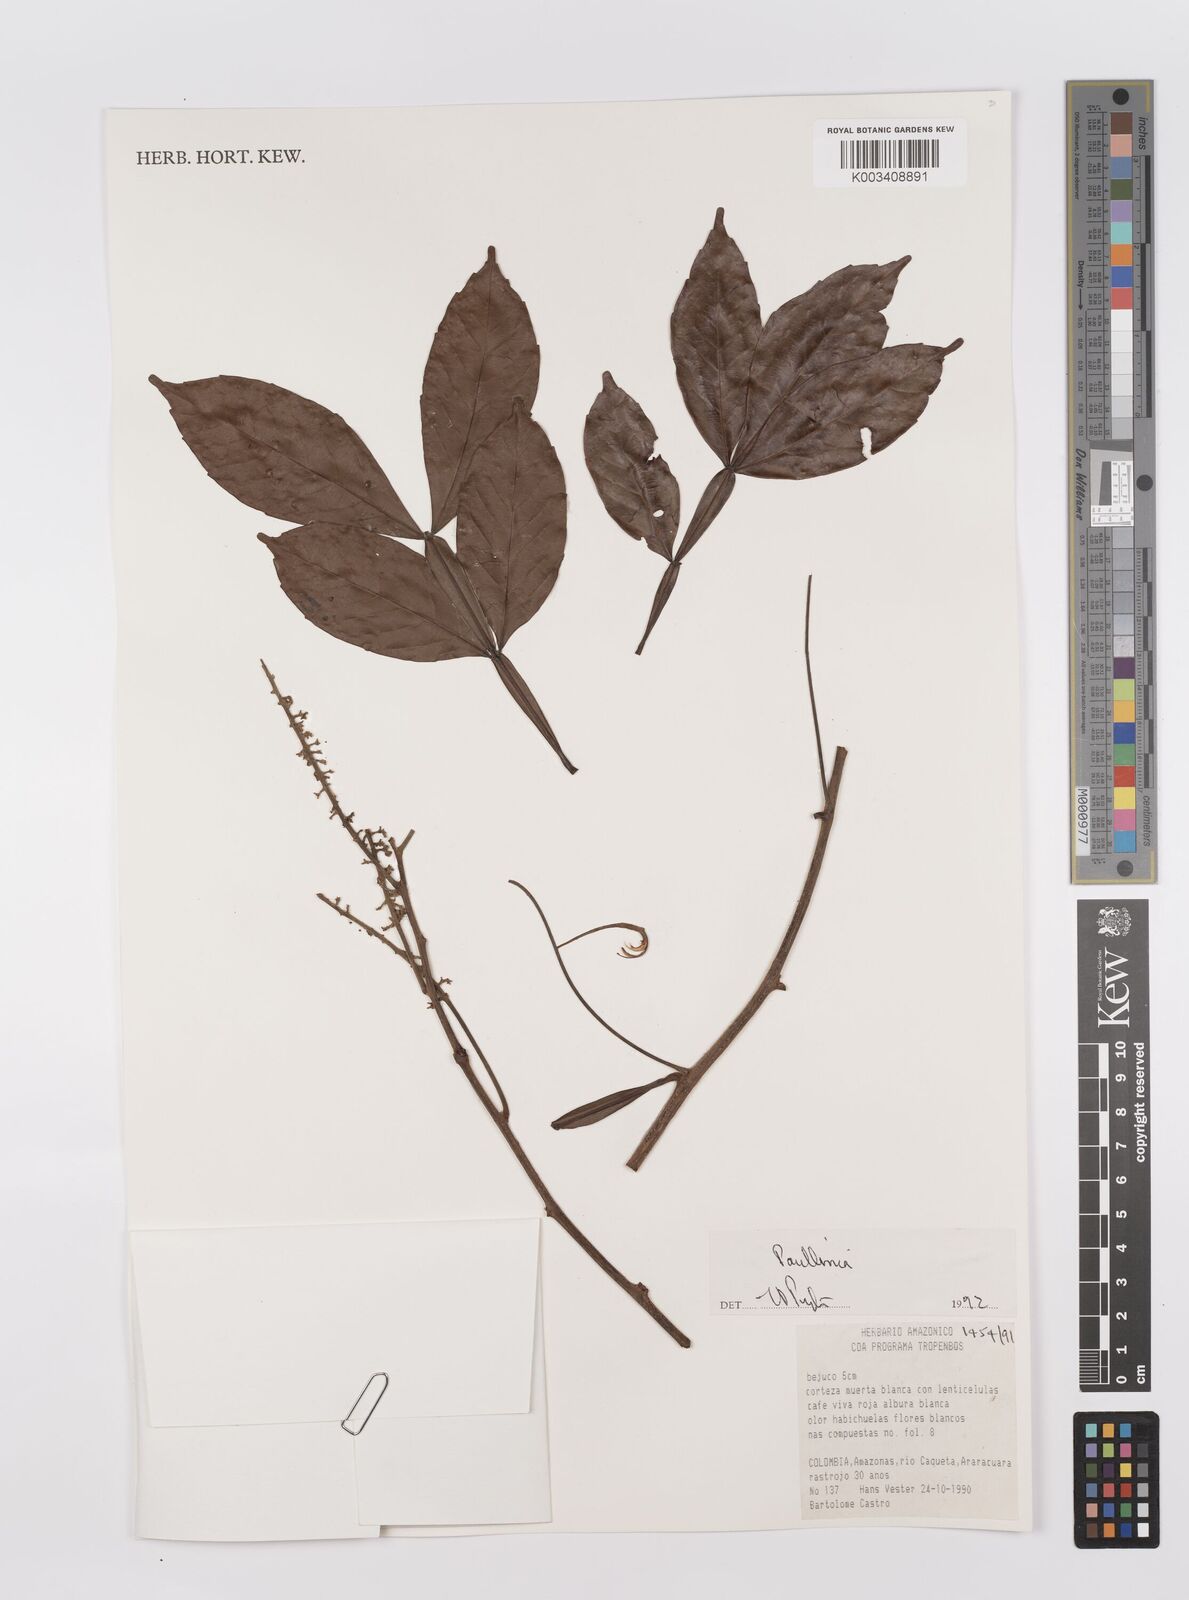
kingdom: Plantae
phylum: Tracheophyta
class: Magnoliopsida
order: Sapindales
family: Sapindaceae
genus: Paullinia
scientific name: Paullinia
